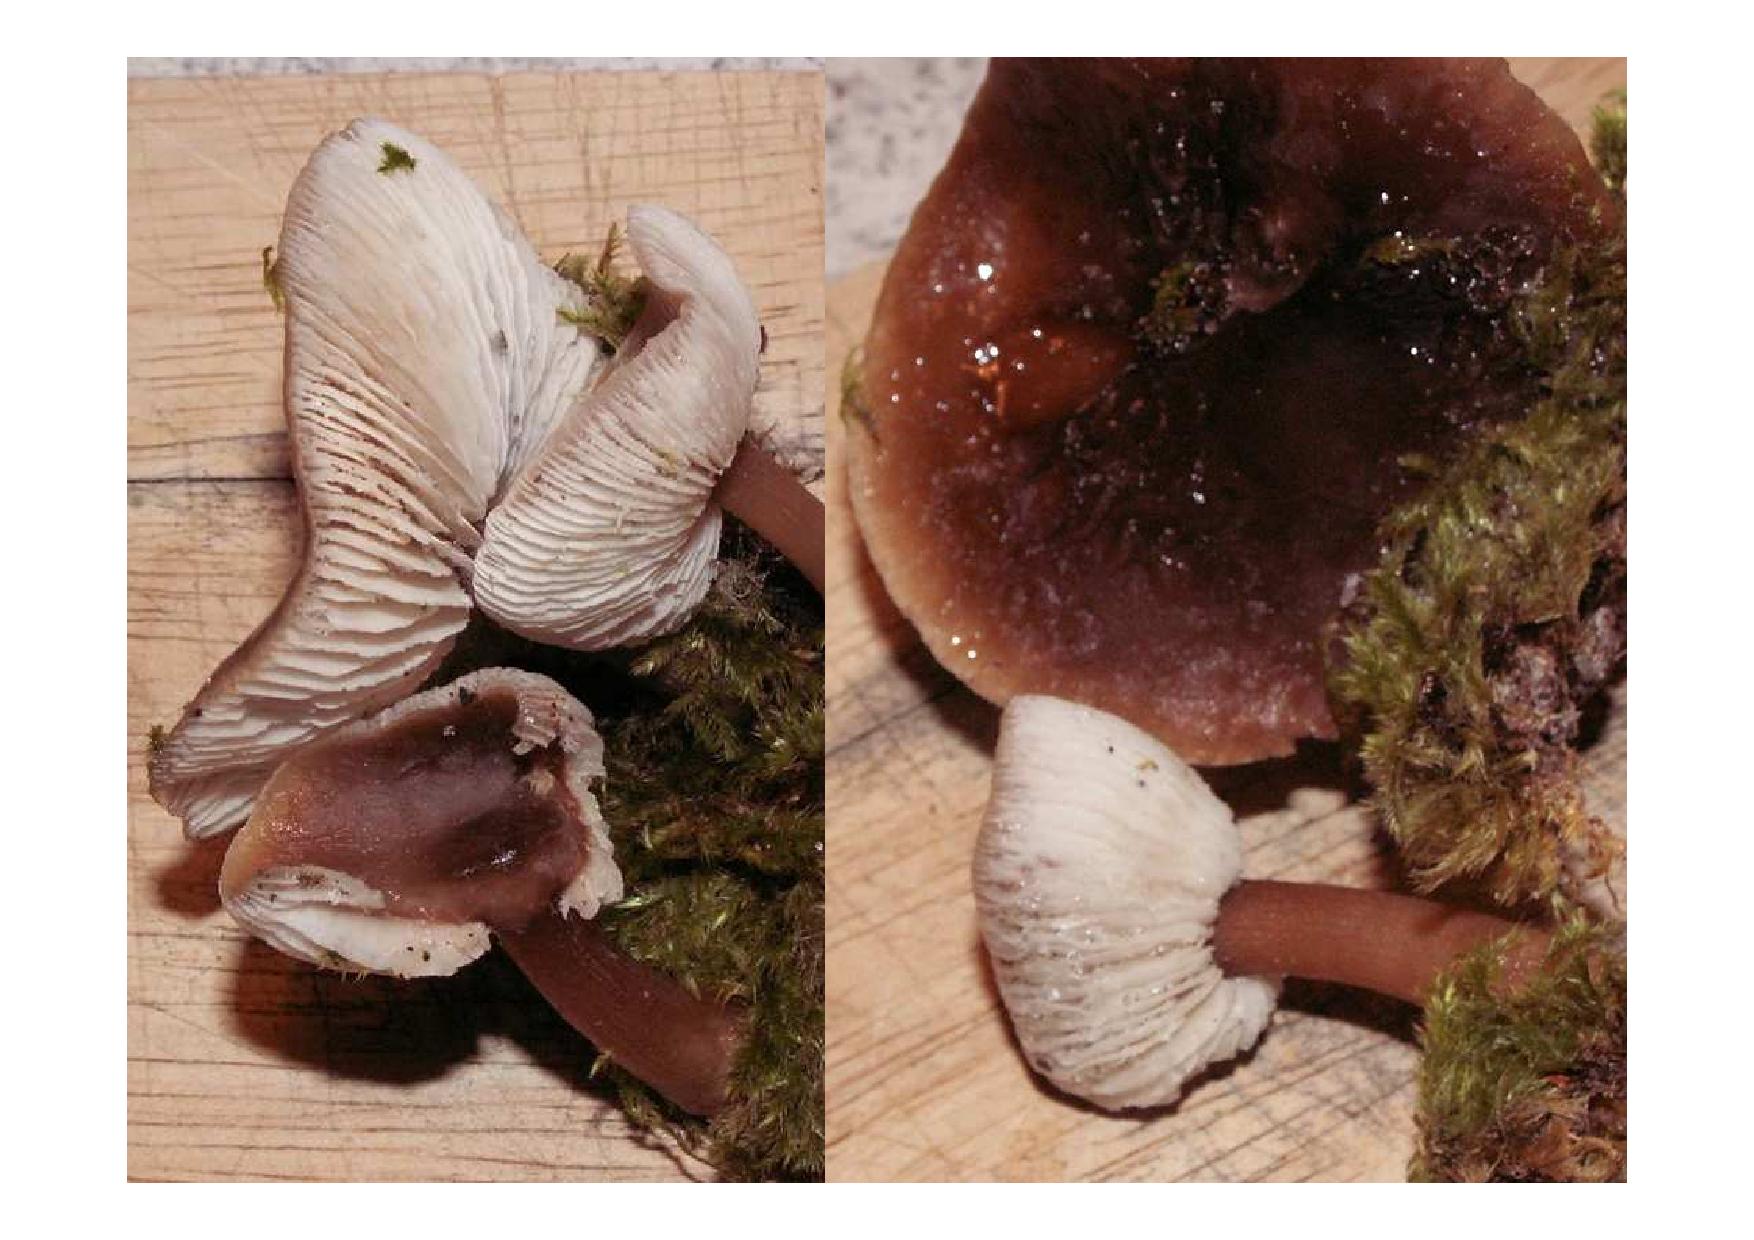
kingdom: Fungi
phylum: Basidiomycota
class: Agaricomycetes
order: Agaricales
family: Omphalotaceae
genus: Rhodocollybia
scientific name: Rhodocollybia butyracea
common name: keglestokket fladhat
